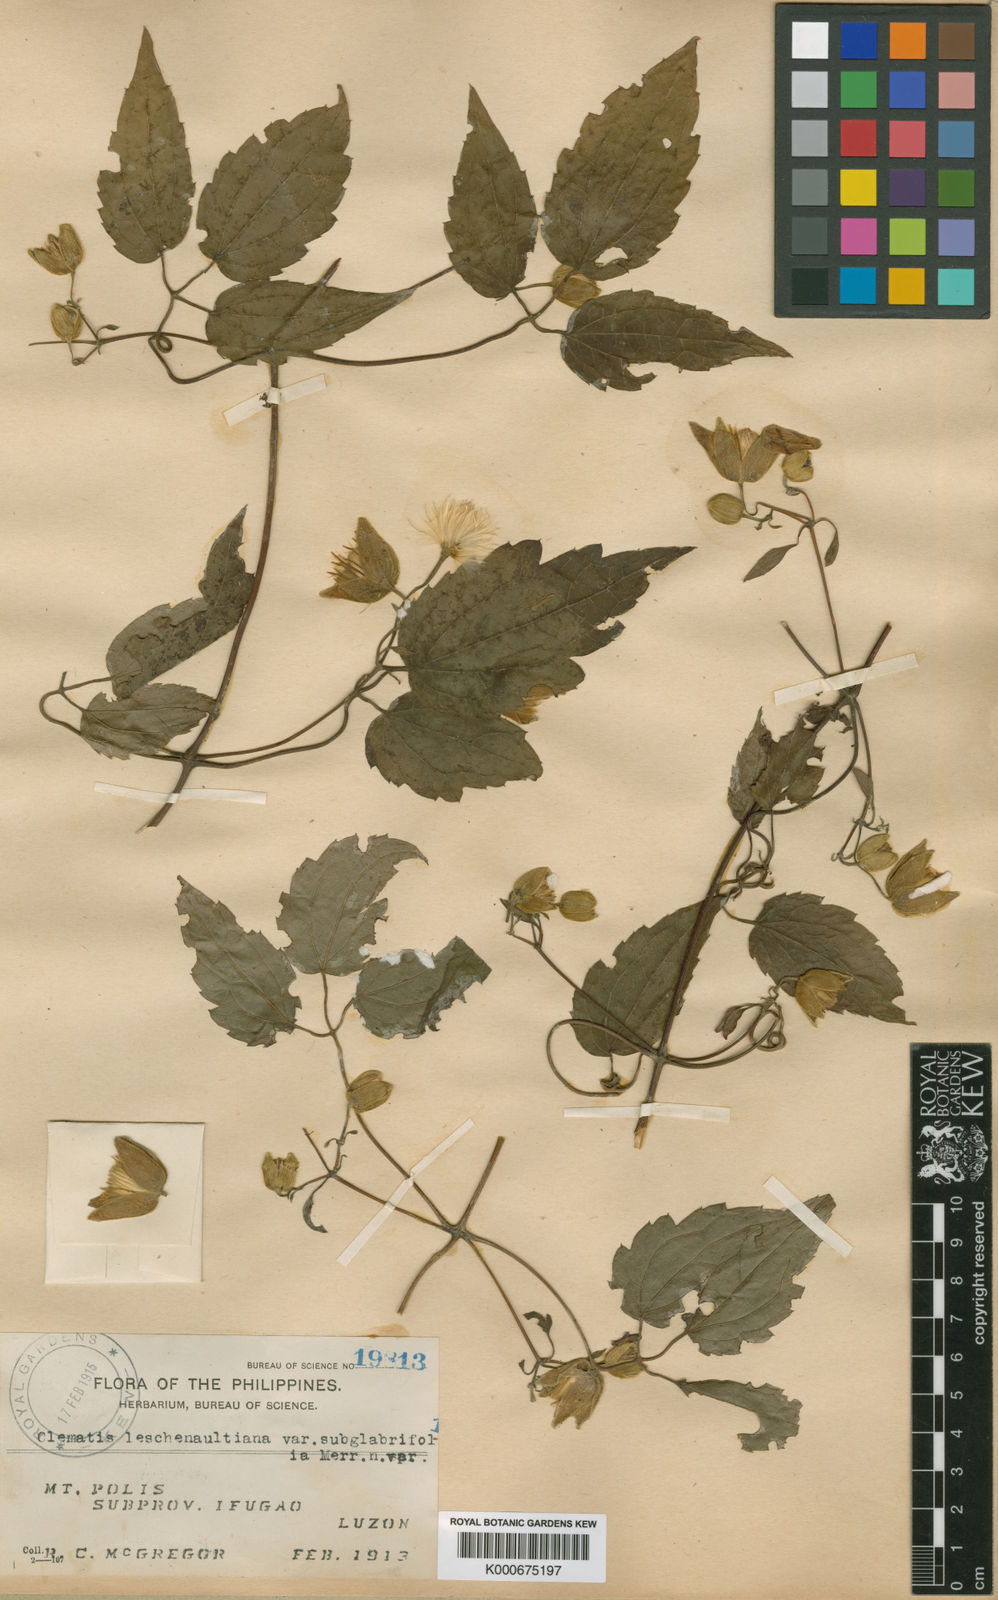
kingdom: Plantae
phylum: Tracheophyta
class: Magnoliopsida
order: Ranunculales
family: Ranunculaceae
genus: Clematis
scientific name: Clematis leschenaultiana
